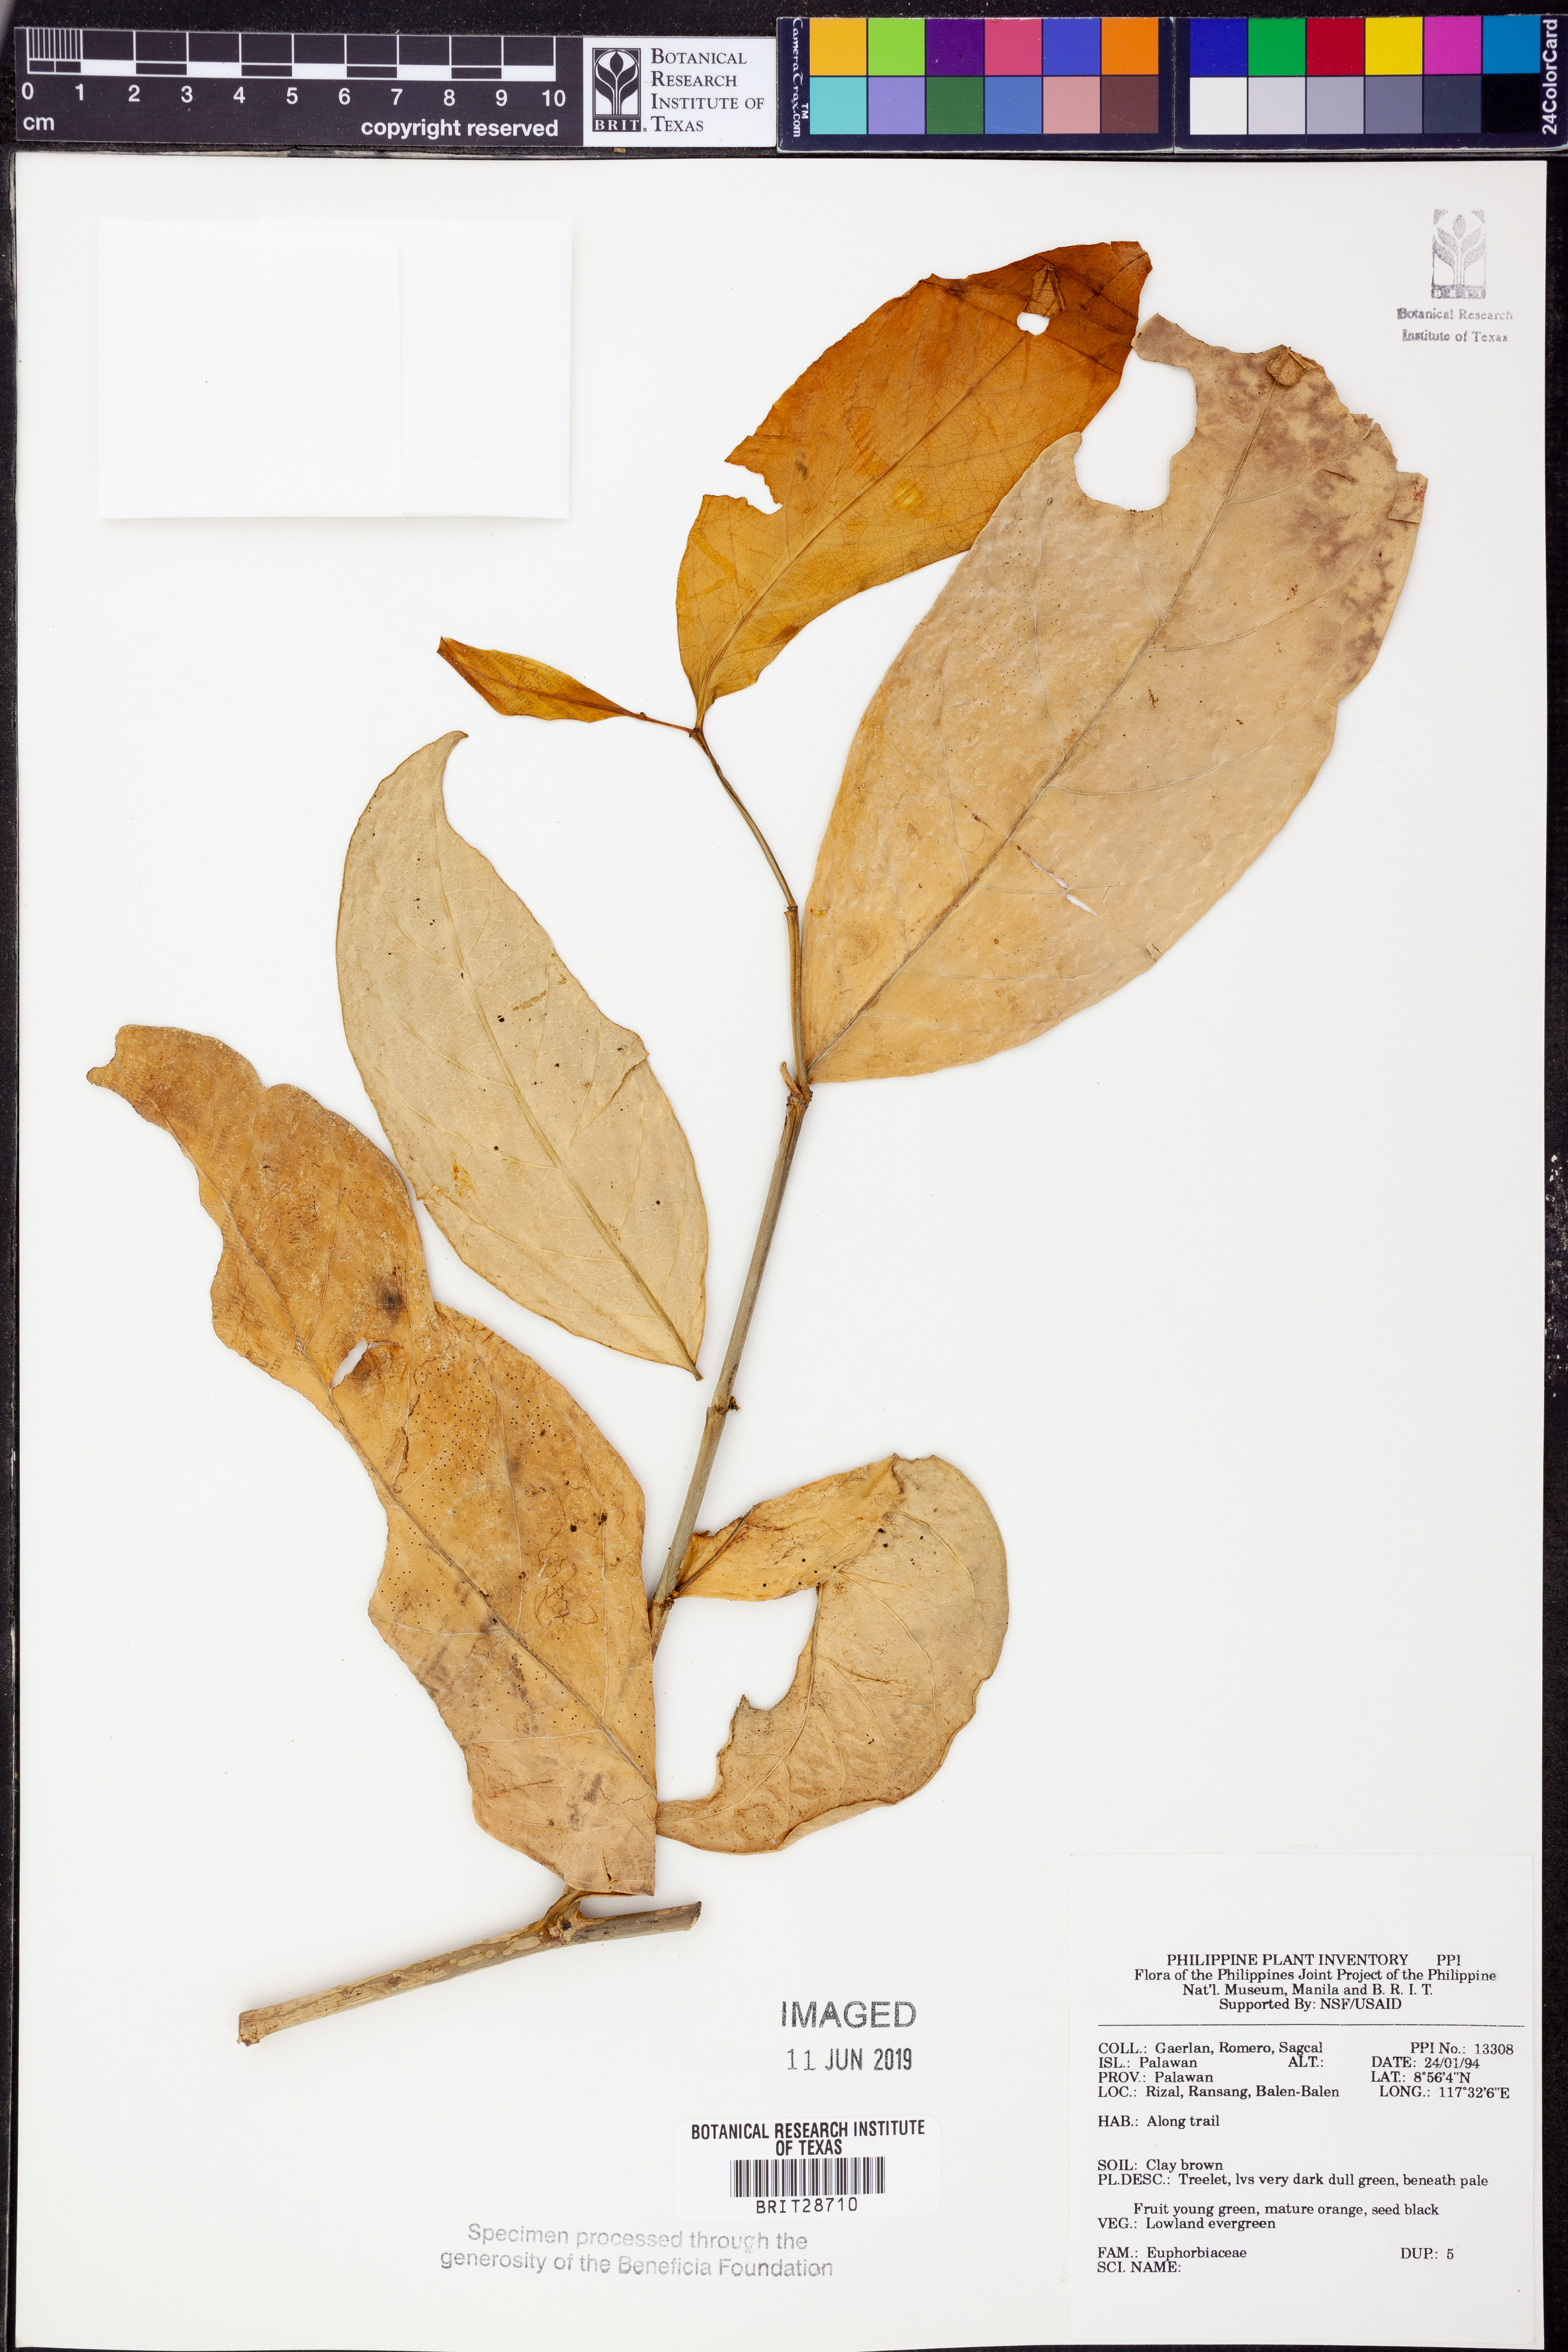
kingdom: Plantae
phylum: Tracheophyta
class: Magnoliopsida
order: Malpighiales
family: Euphorbiaceae
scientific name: Euphorbiaceae
